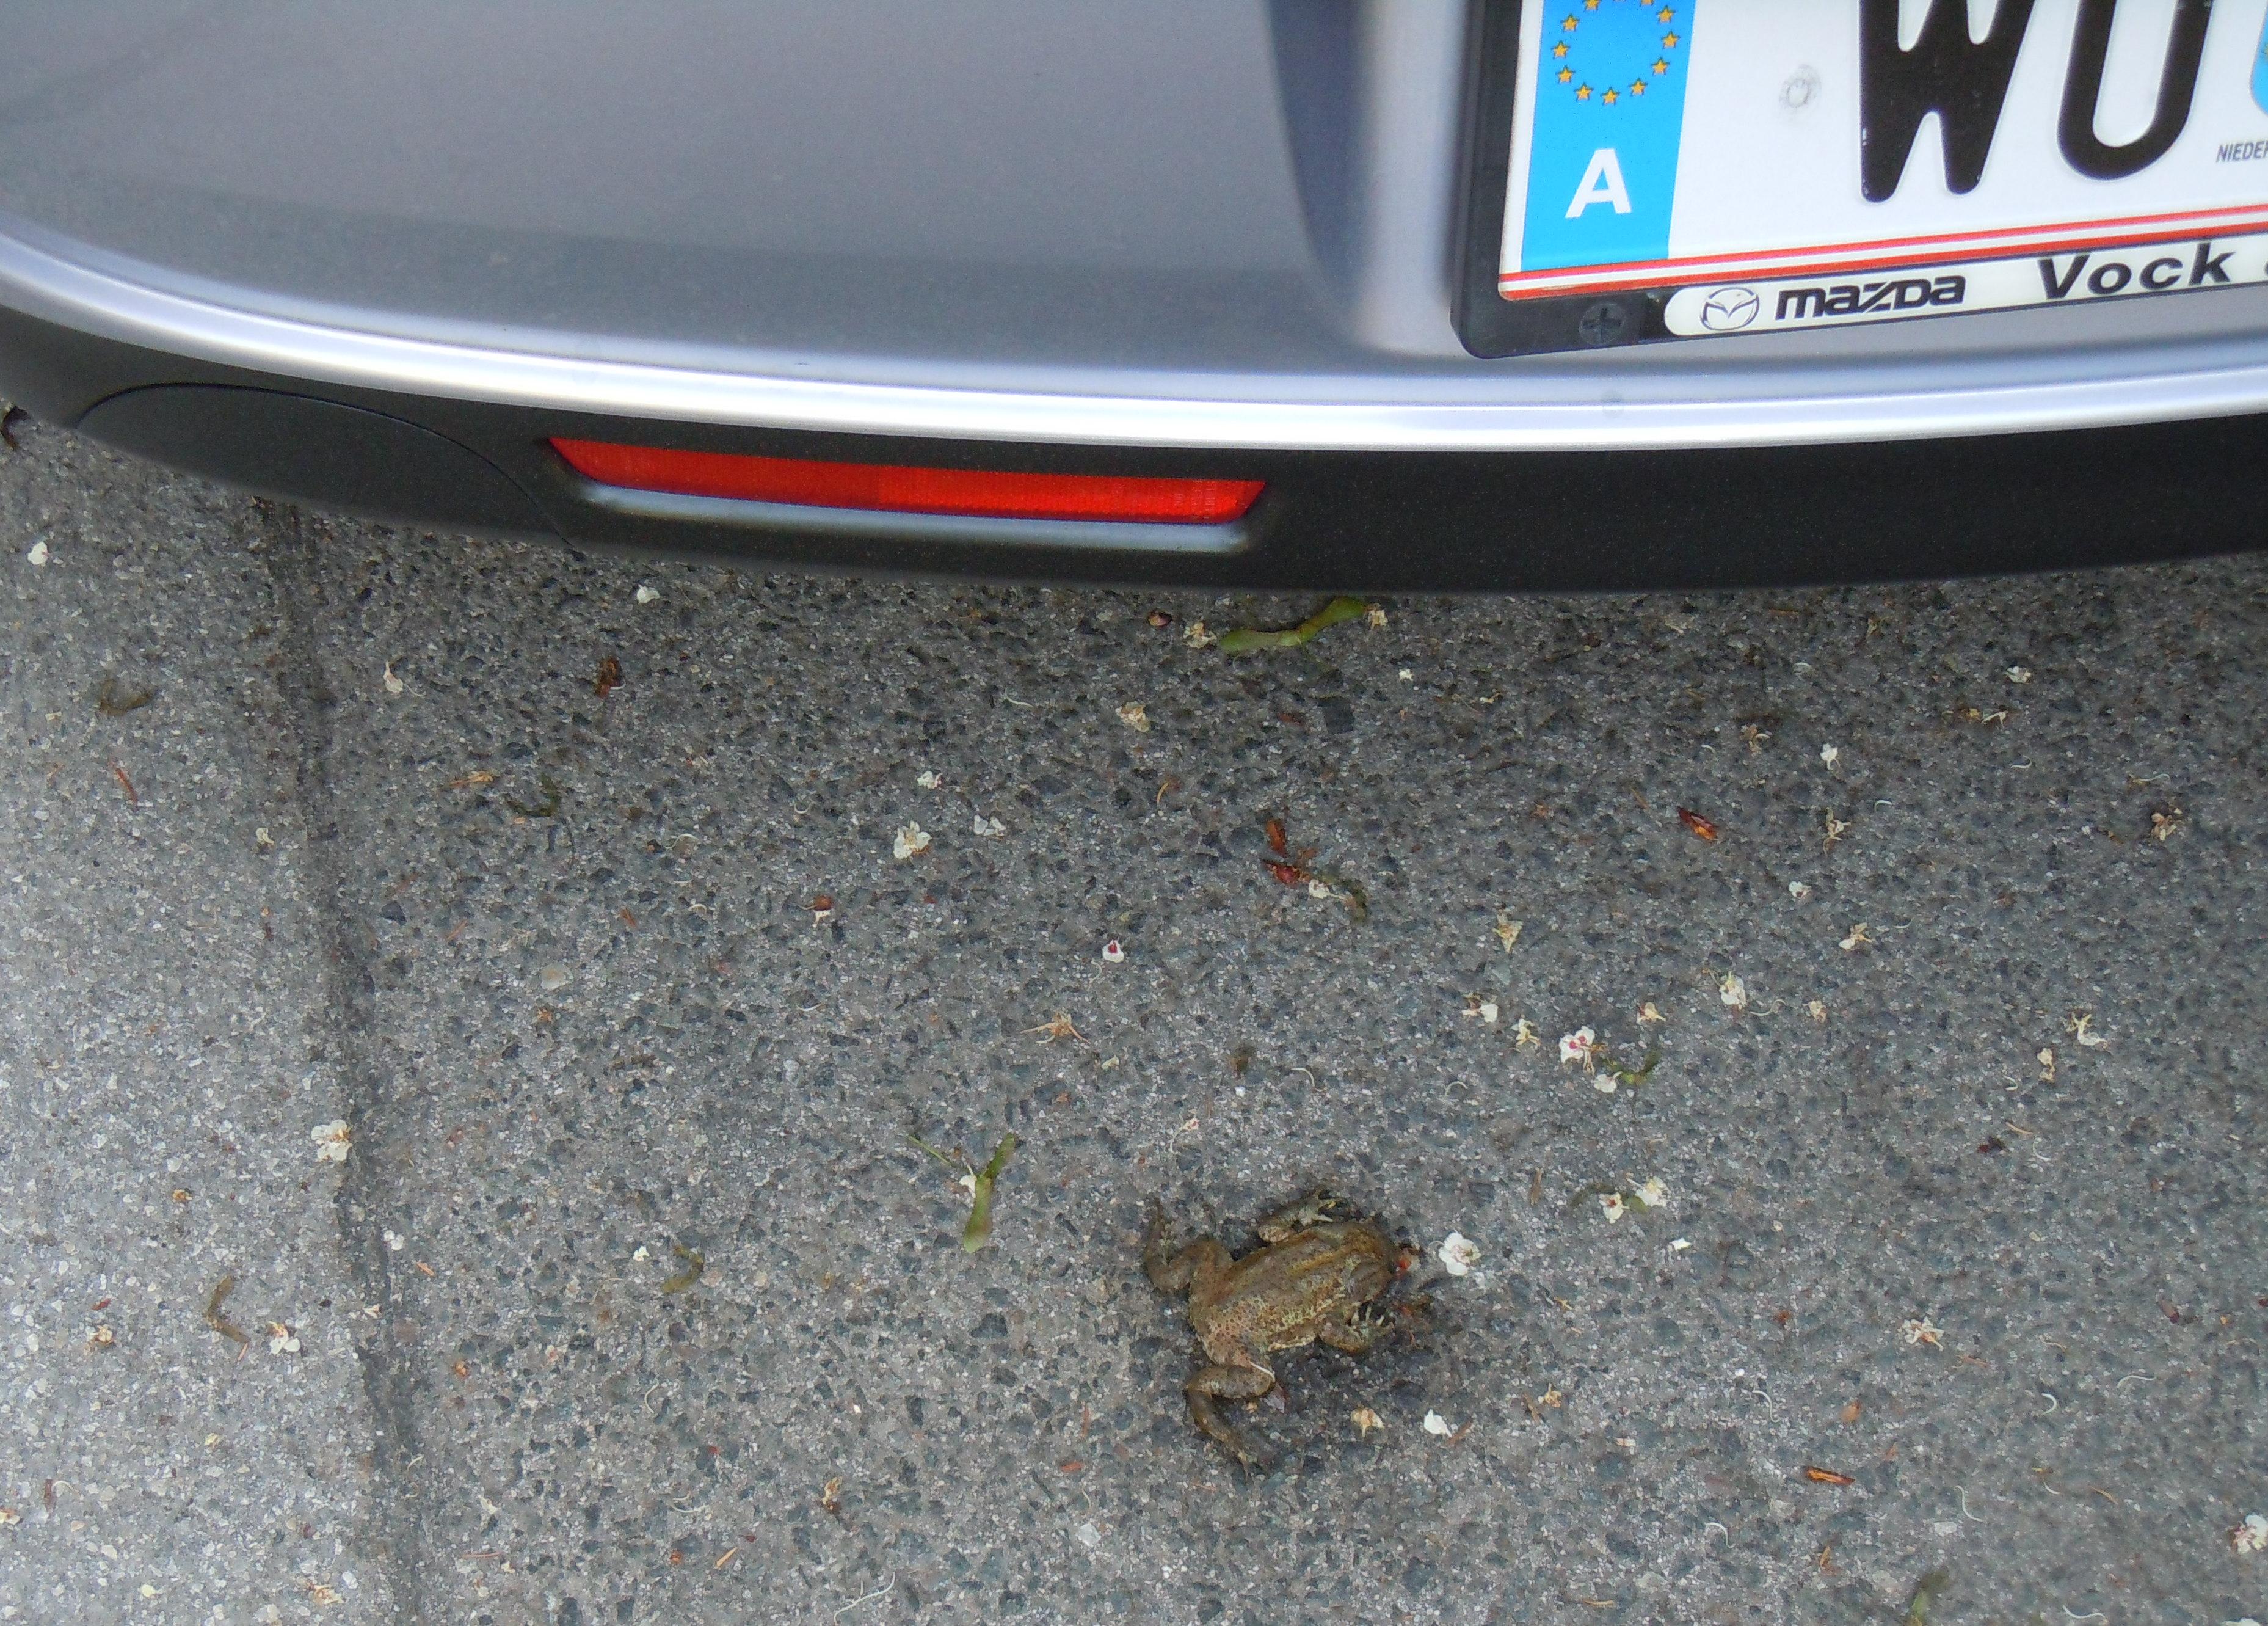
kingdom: Animalia
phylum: Chordata
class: Amphibia
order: Anura
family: Bufonidae
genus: Bufo
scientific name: Bufo bufo
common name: Common toad
